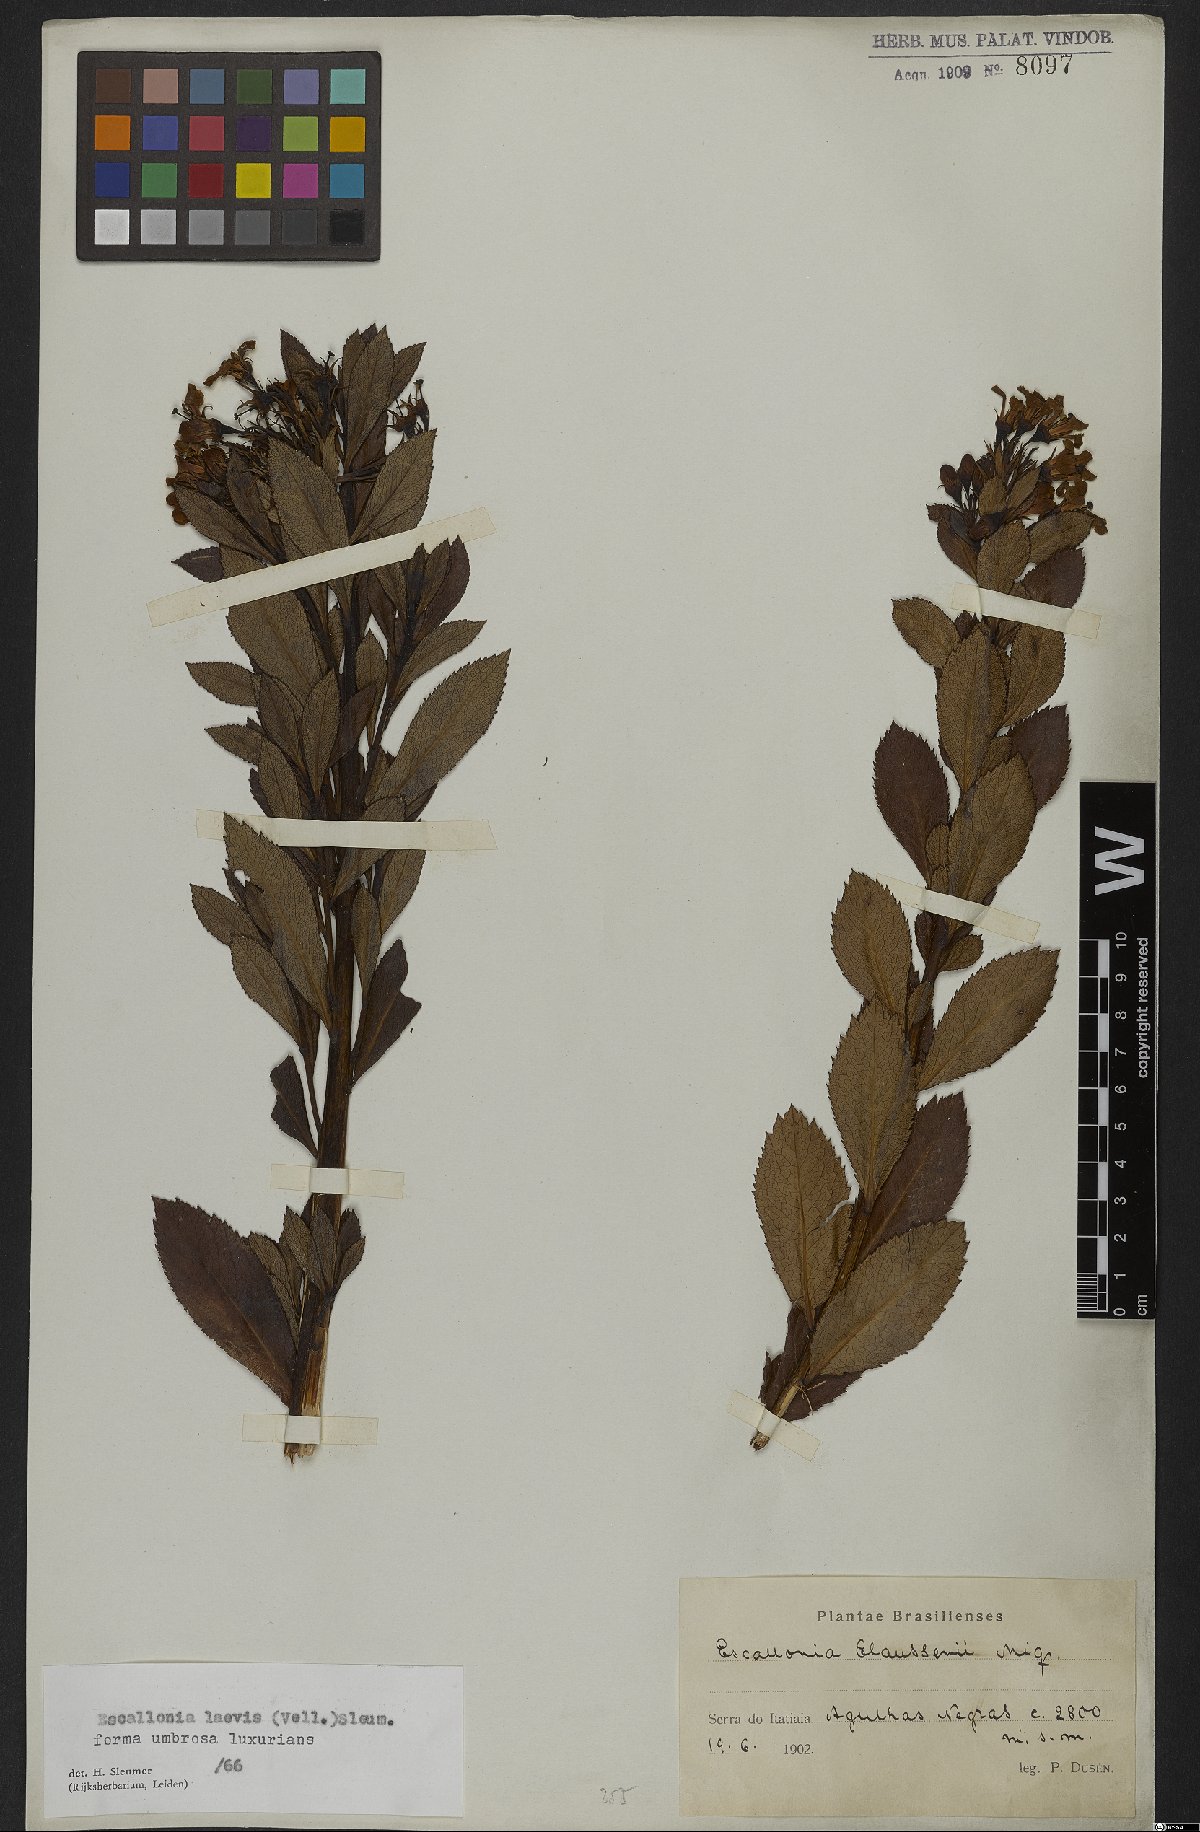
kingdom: Plantae
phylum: Tracheophyta
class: Magnoliopsida
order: Escalloniales
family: Escalloniaceae
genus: Escallonia
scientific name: Escallonia laevis
